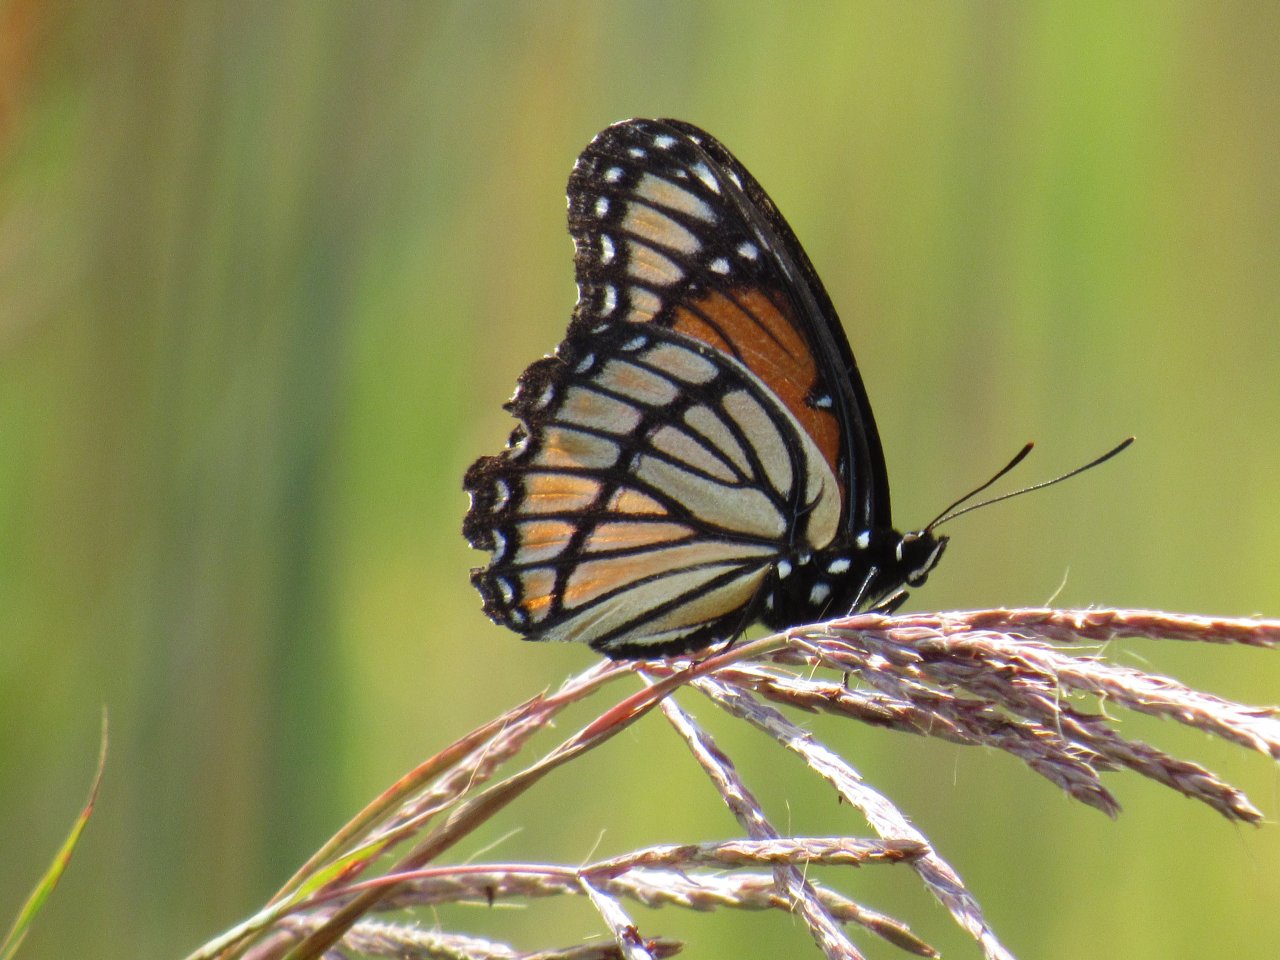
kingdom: Animalia
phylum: Arthropoda
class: Insecta
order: Lepidoptera
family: Nymphalidae
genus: Limenitis
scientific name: Limenitis archippus
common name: Viceroy
